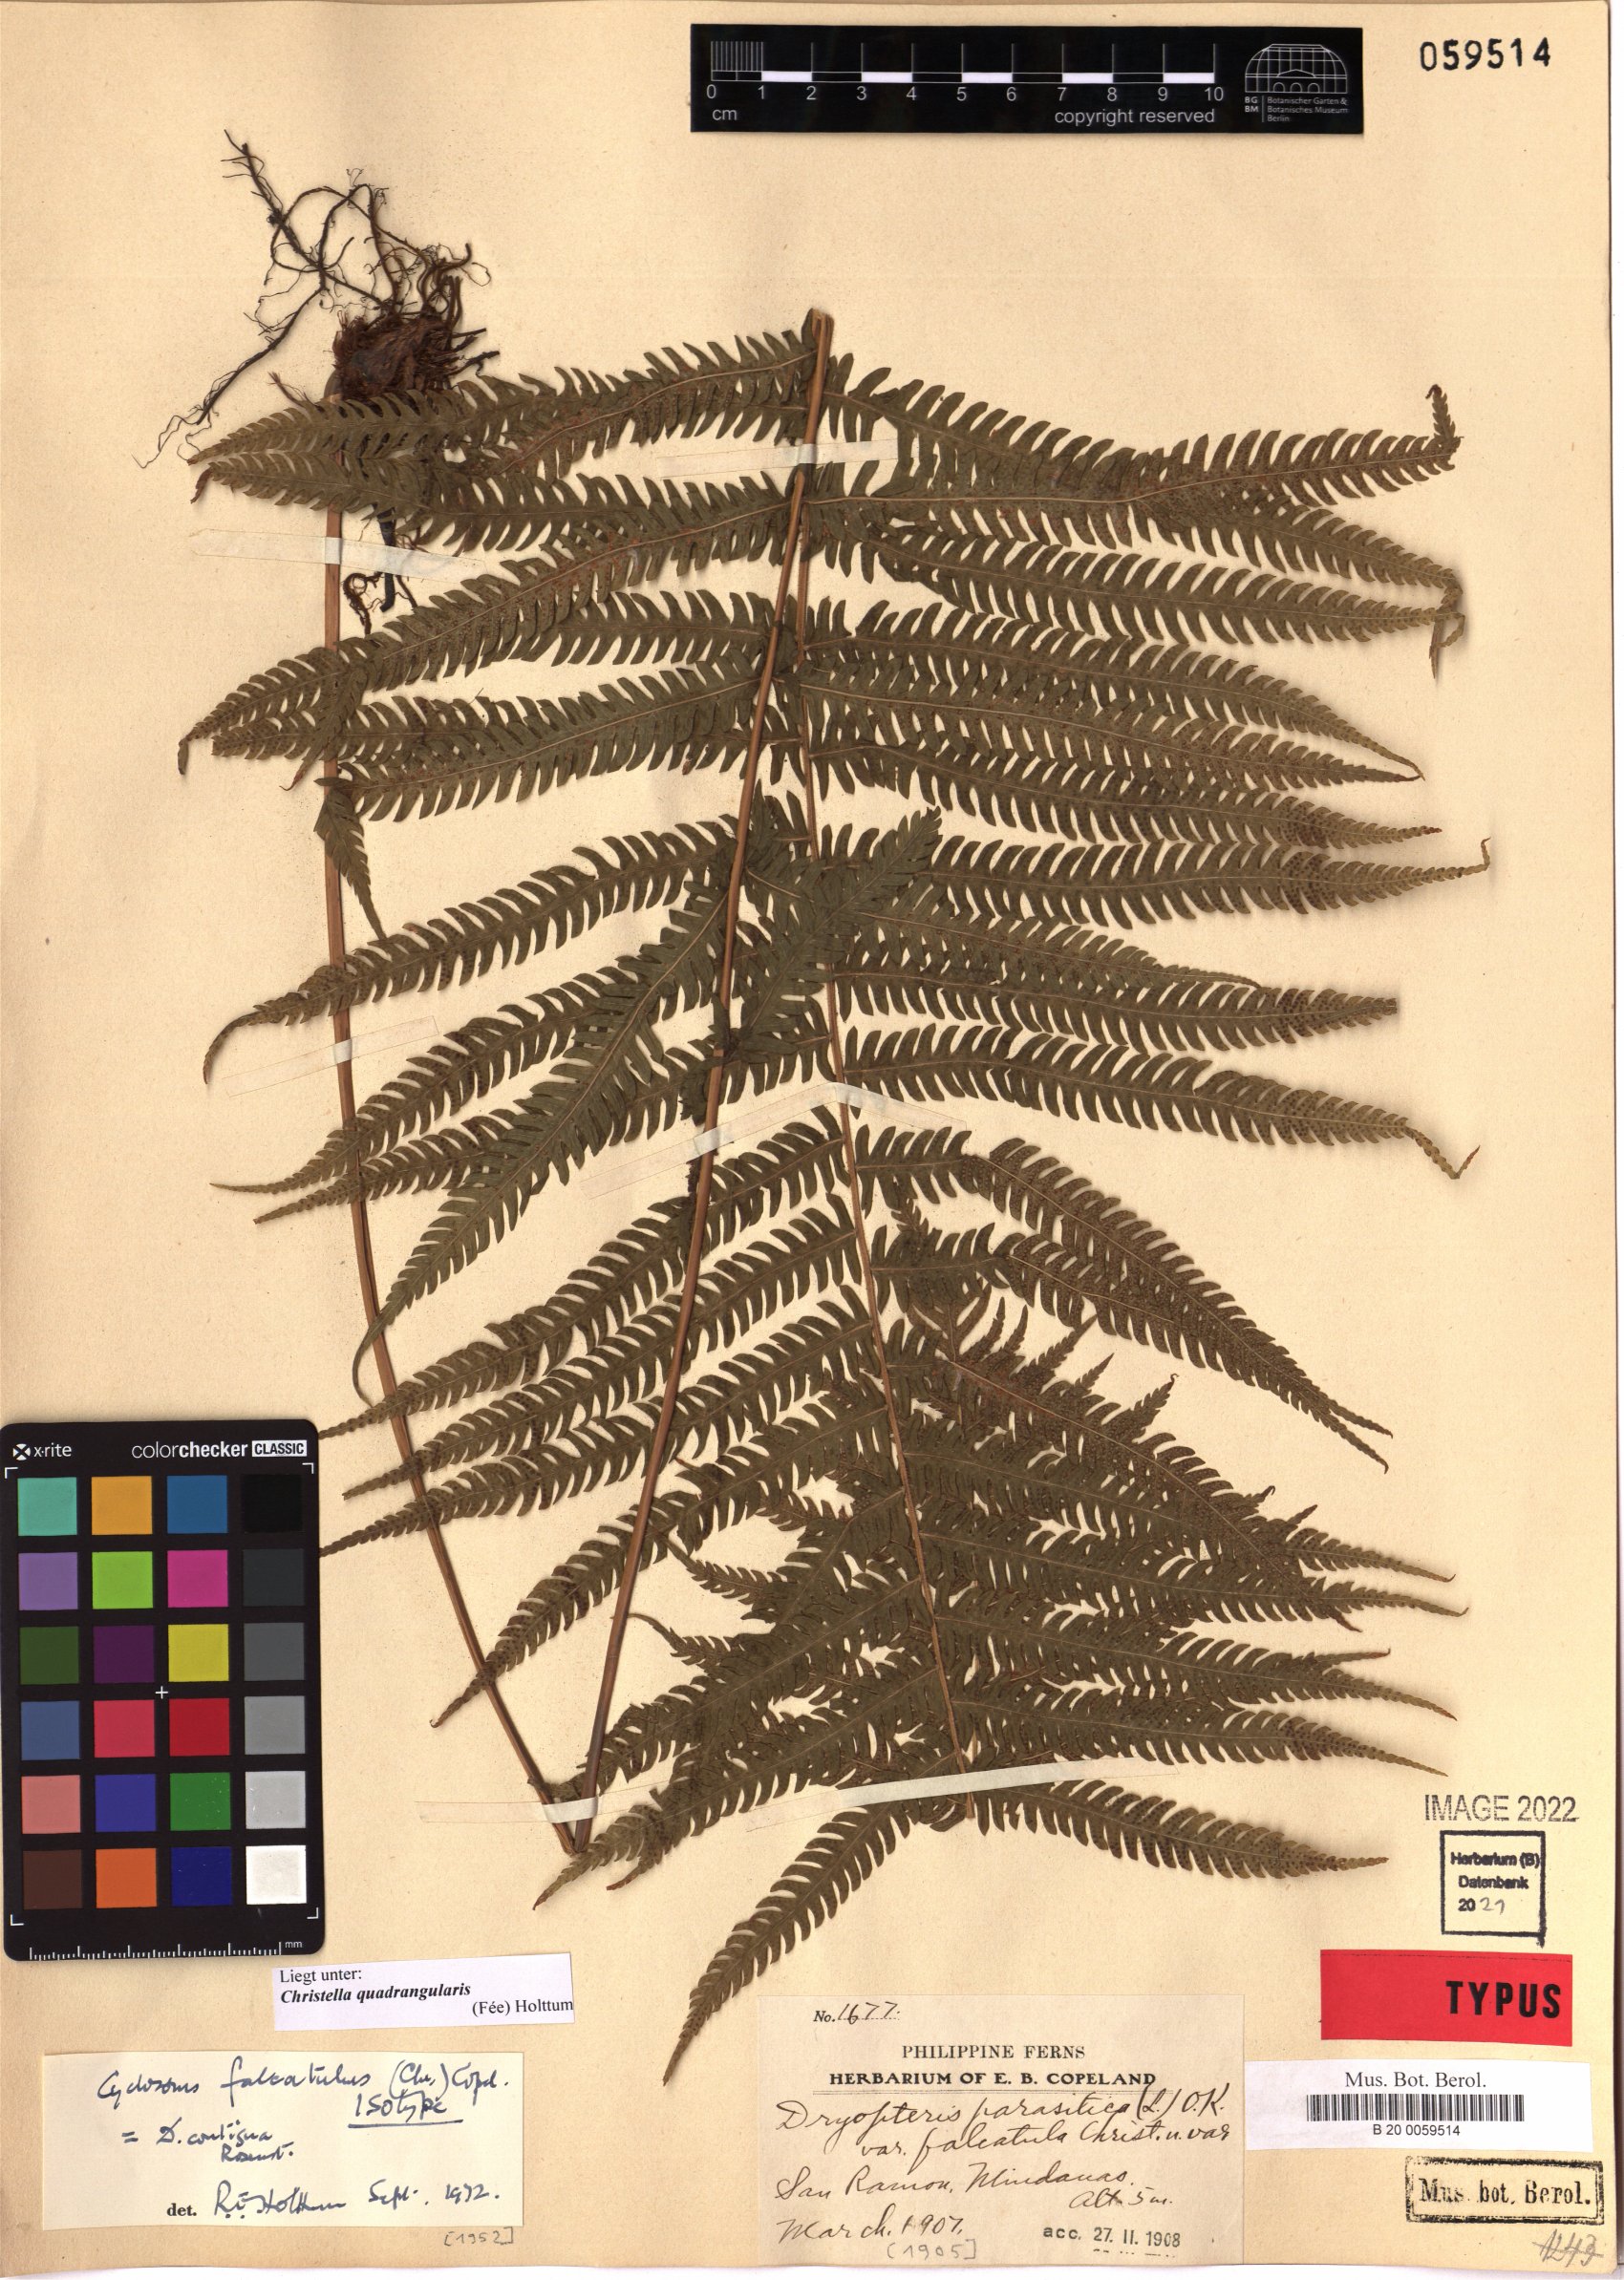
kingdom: Plantae
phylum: Tracheophyta
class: Polypodiopsida
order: Polypodiales
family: Thelypteridaceae
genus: Christella
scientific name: Christella hispidula
